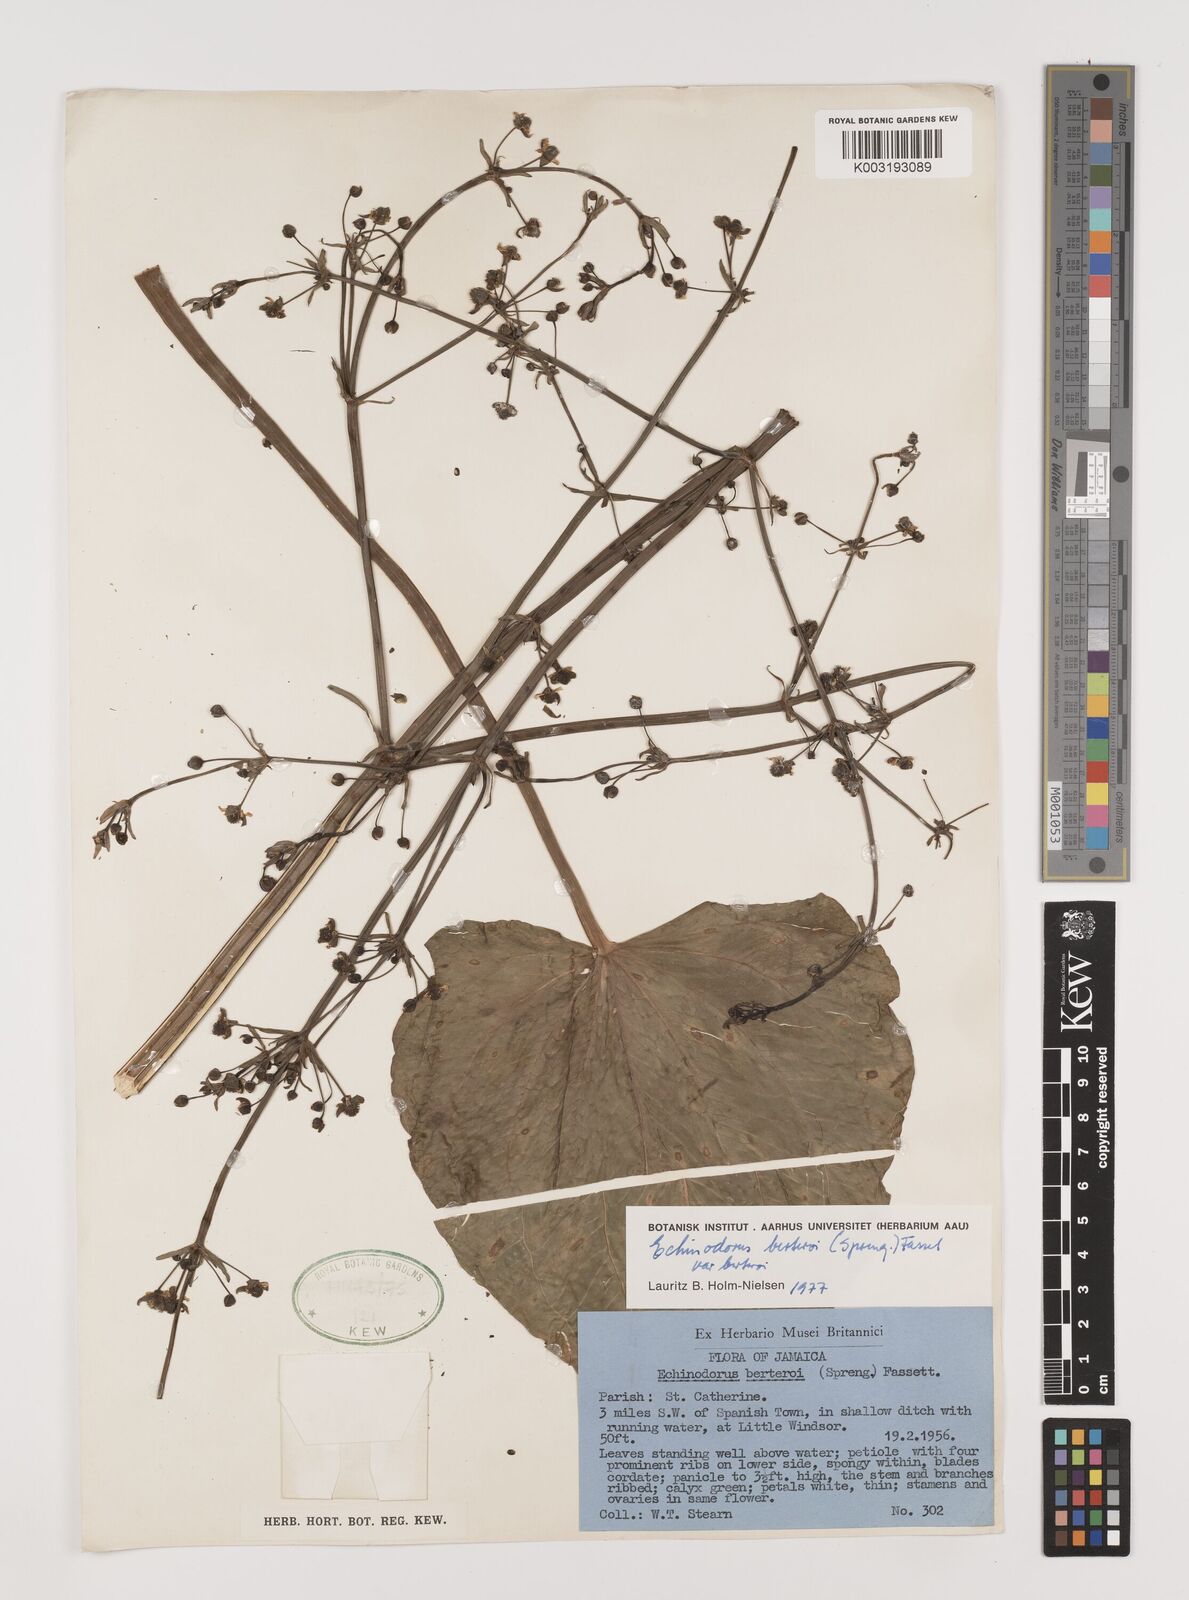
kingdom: Plantae
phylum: Tracheophyta
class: Liliopsida
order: Alismatales
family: Alismataceae
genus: Echinodorus
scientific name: Echinodorus berteroi
